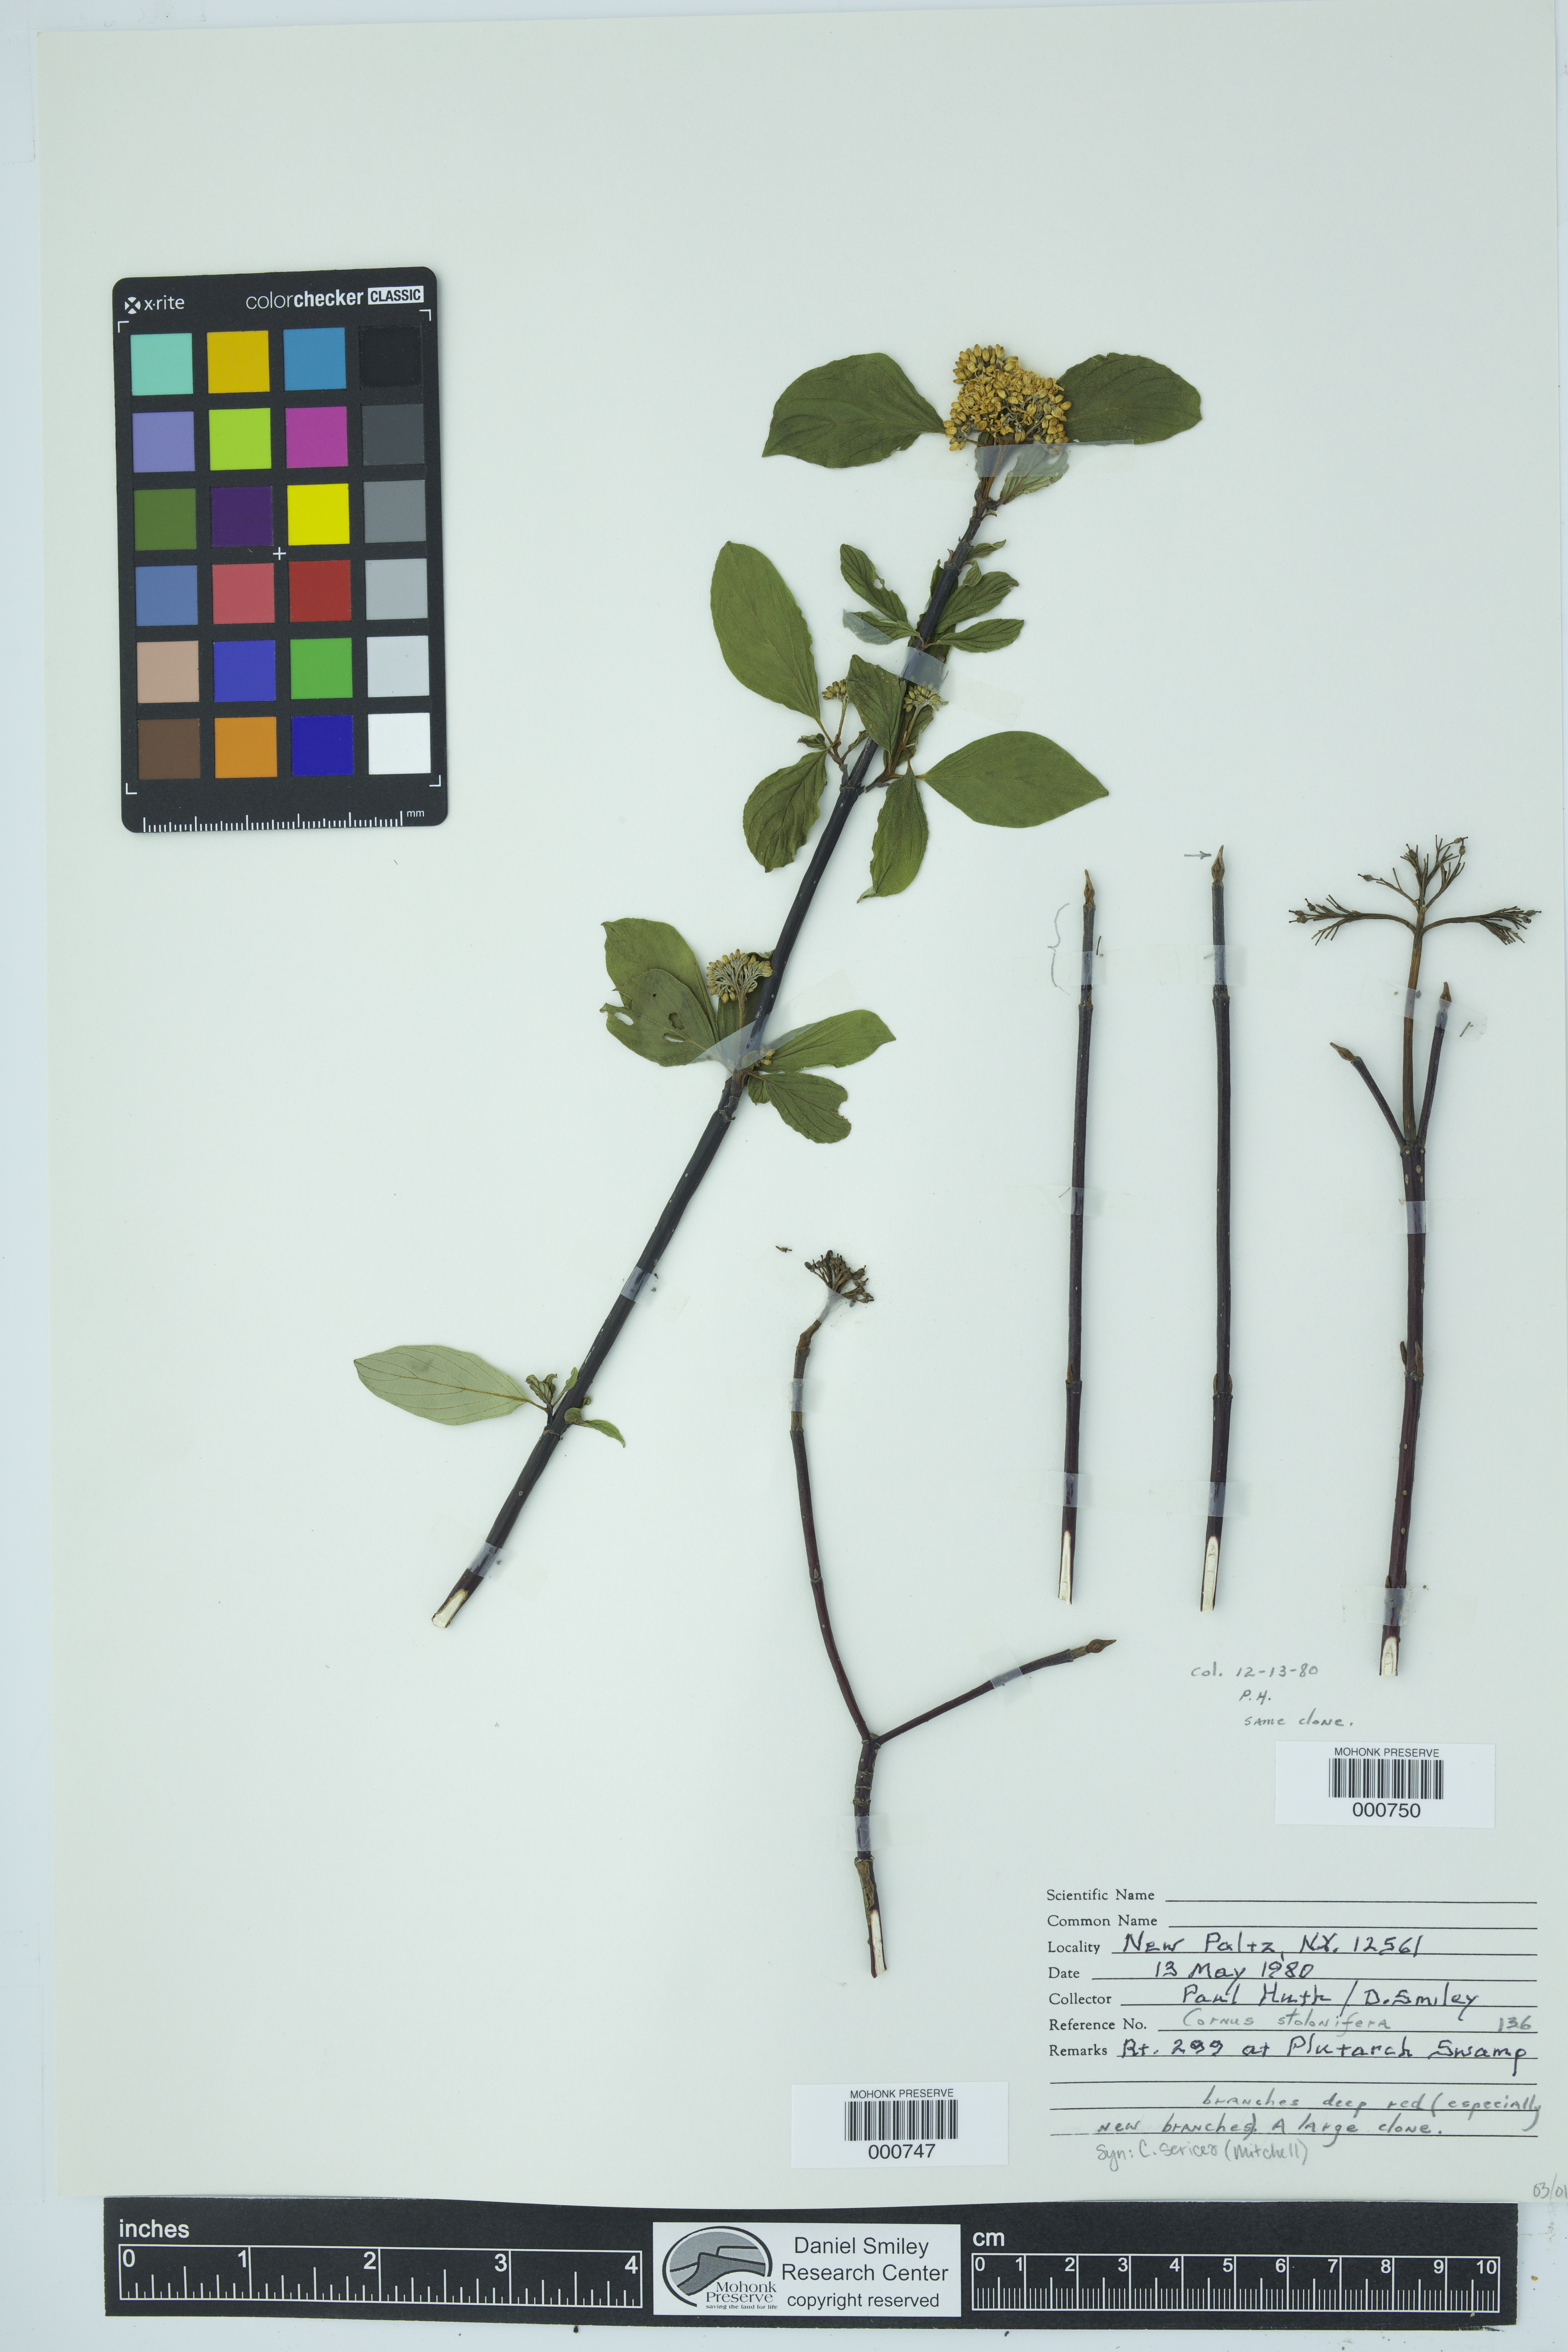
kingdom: Plantae
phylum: Tracheophyta
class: Magnoliopsida
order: Cornales
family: Cornaceae
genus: Cornus
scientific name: Cornus sericea
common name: Red-osier dogwood
